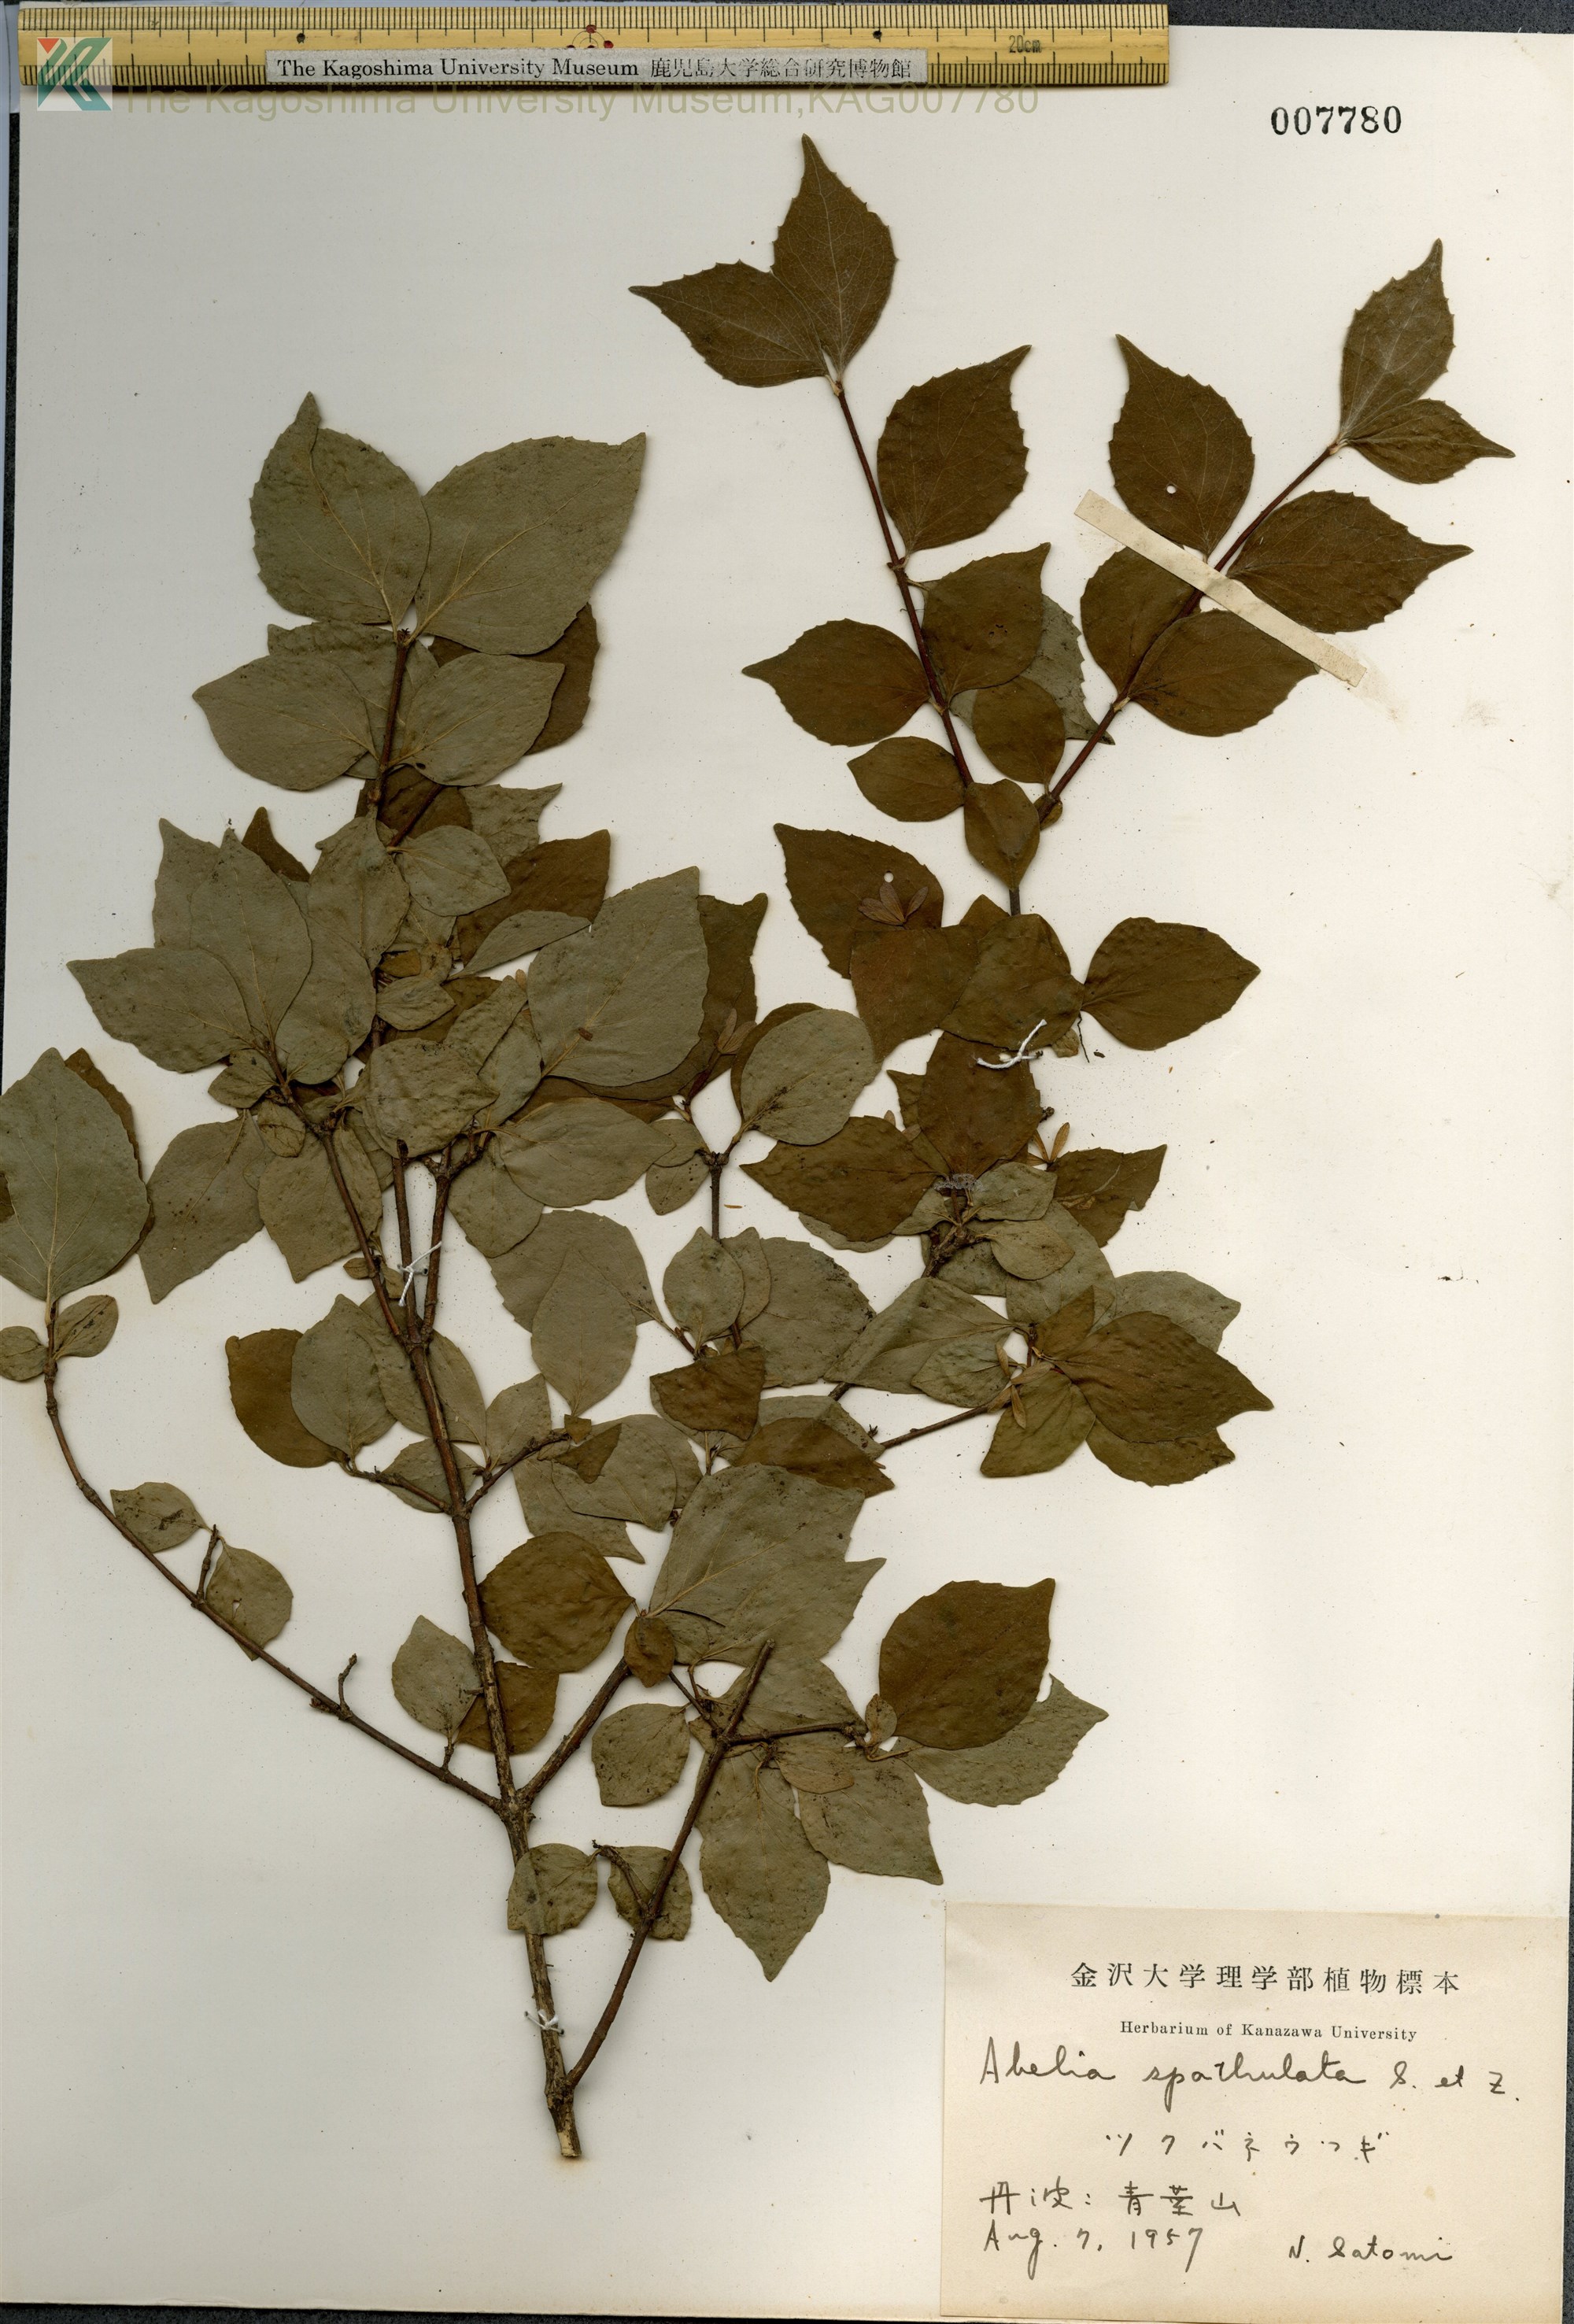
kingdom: Plantae
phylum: Tracheophyta
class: Magnoliopsida
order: Dipsacales
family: Caprifoliaceae
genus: Diabelia
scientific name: Diabelia spathulata
